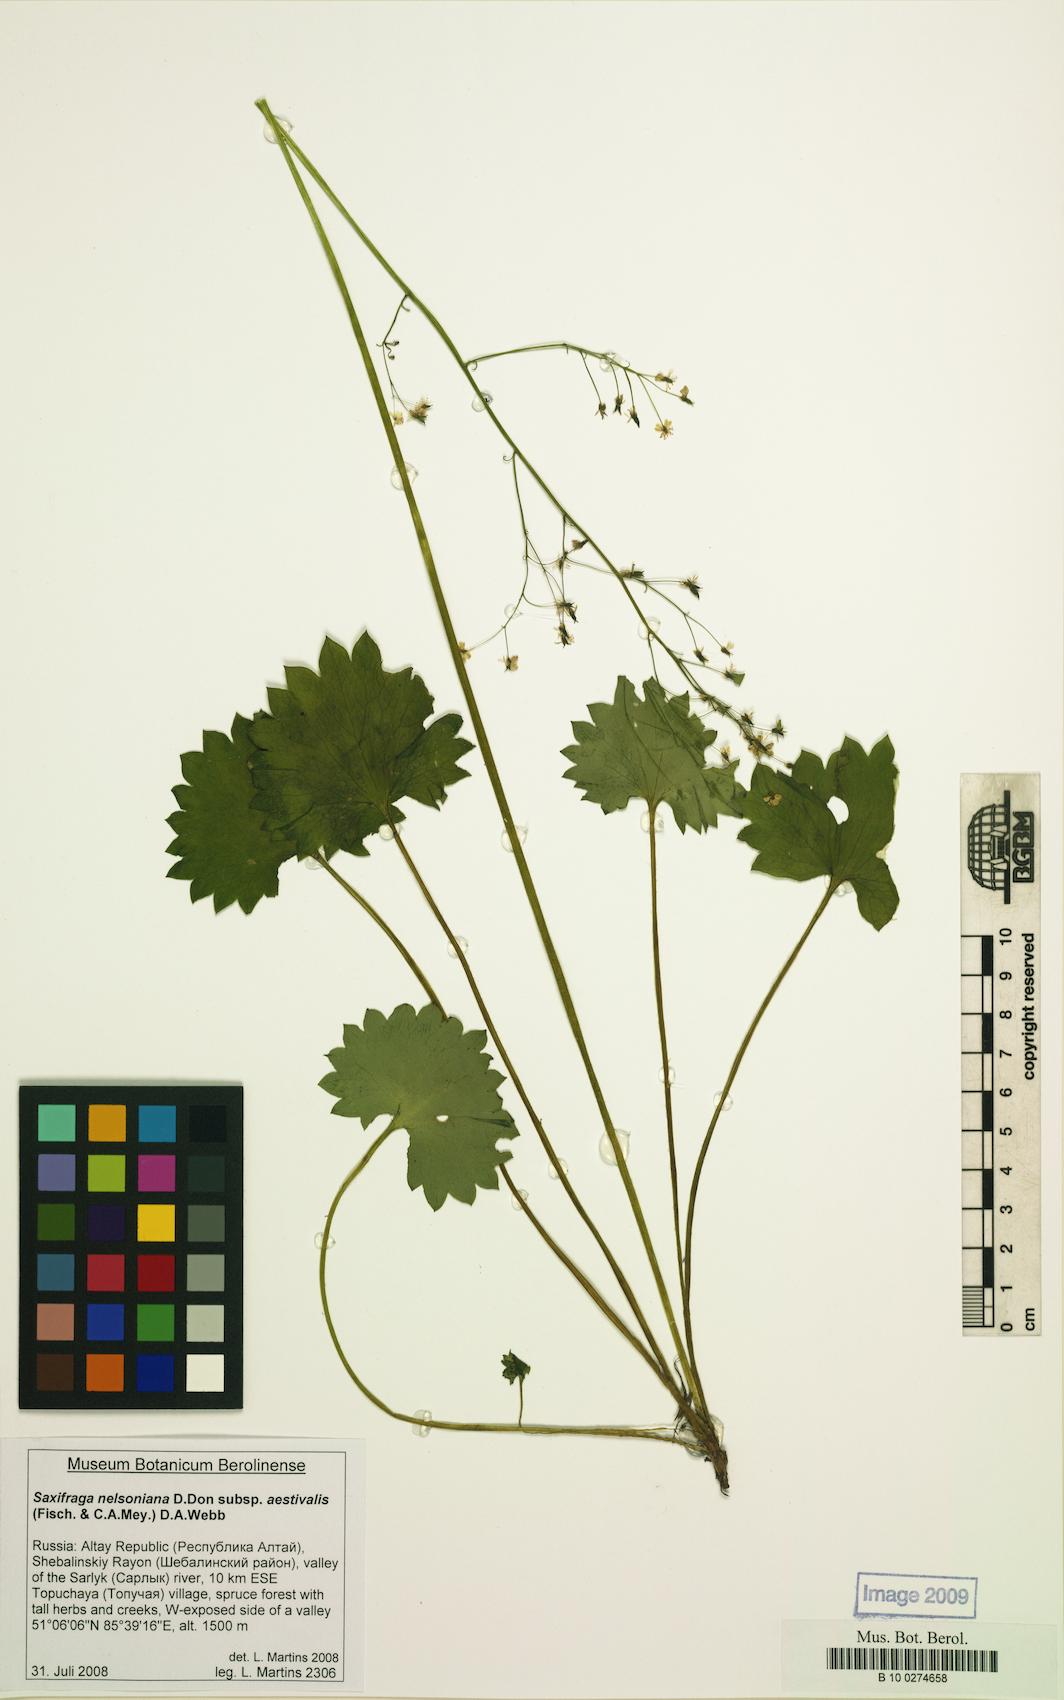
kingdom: Plantae
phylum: Tracheophyta
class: Magnoliopsida
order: Saxifragales
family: Saxifragaceae
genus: Micranthes
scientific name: Micranthes nelsoniana
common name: Nelson's saxifrage
